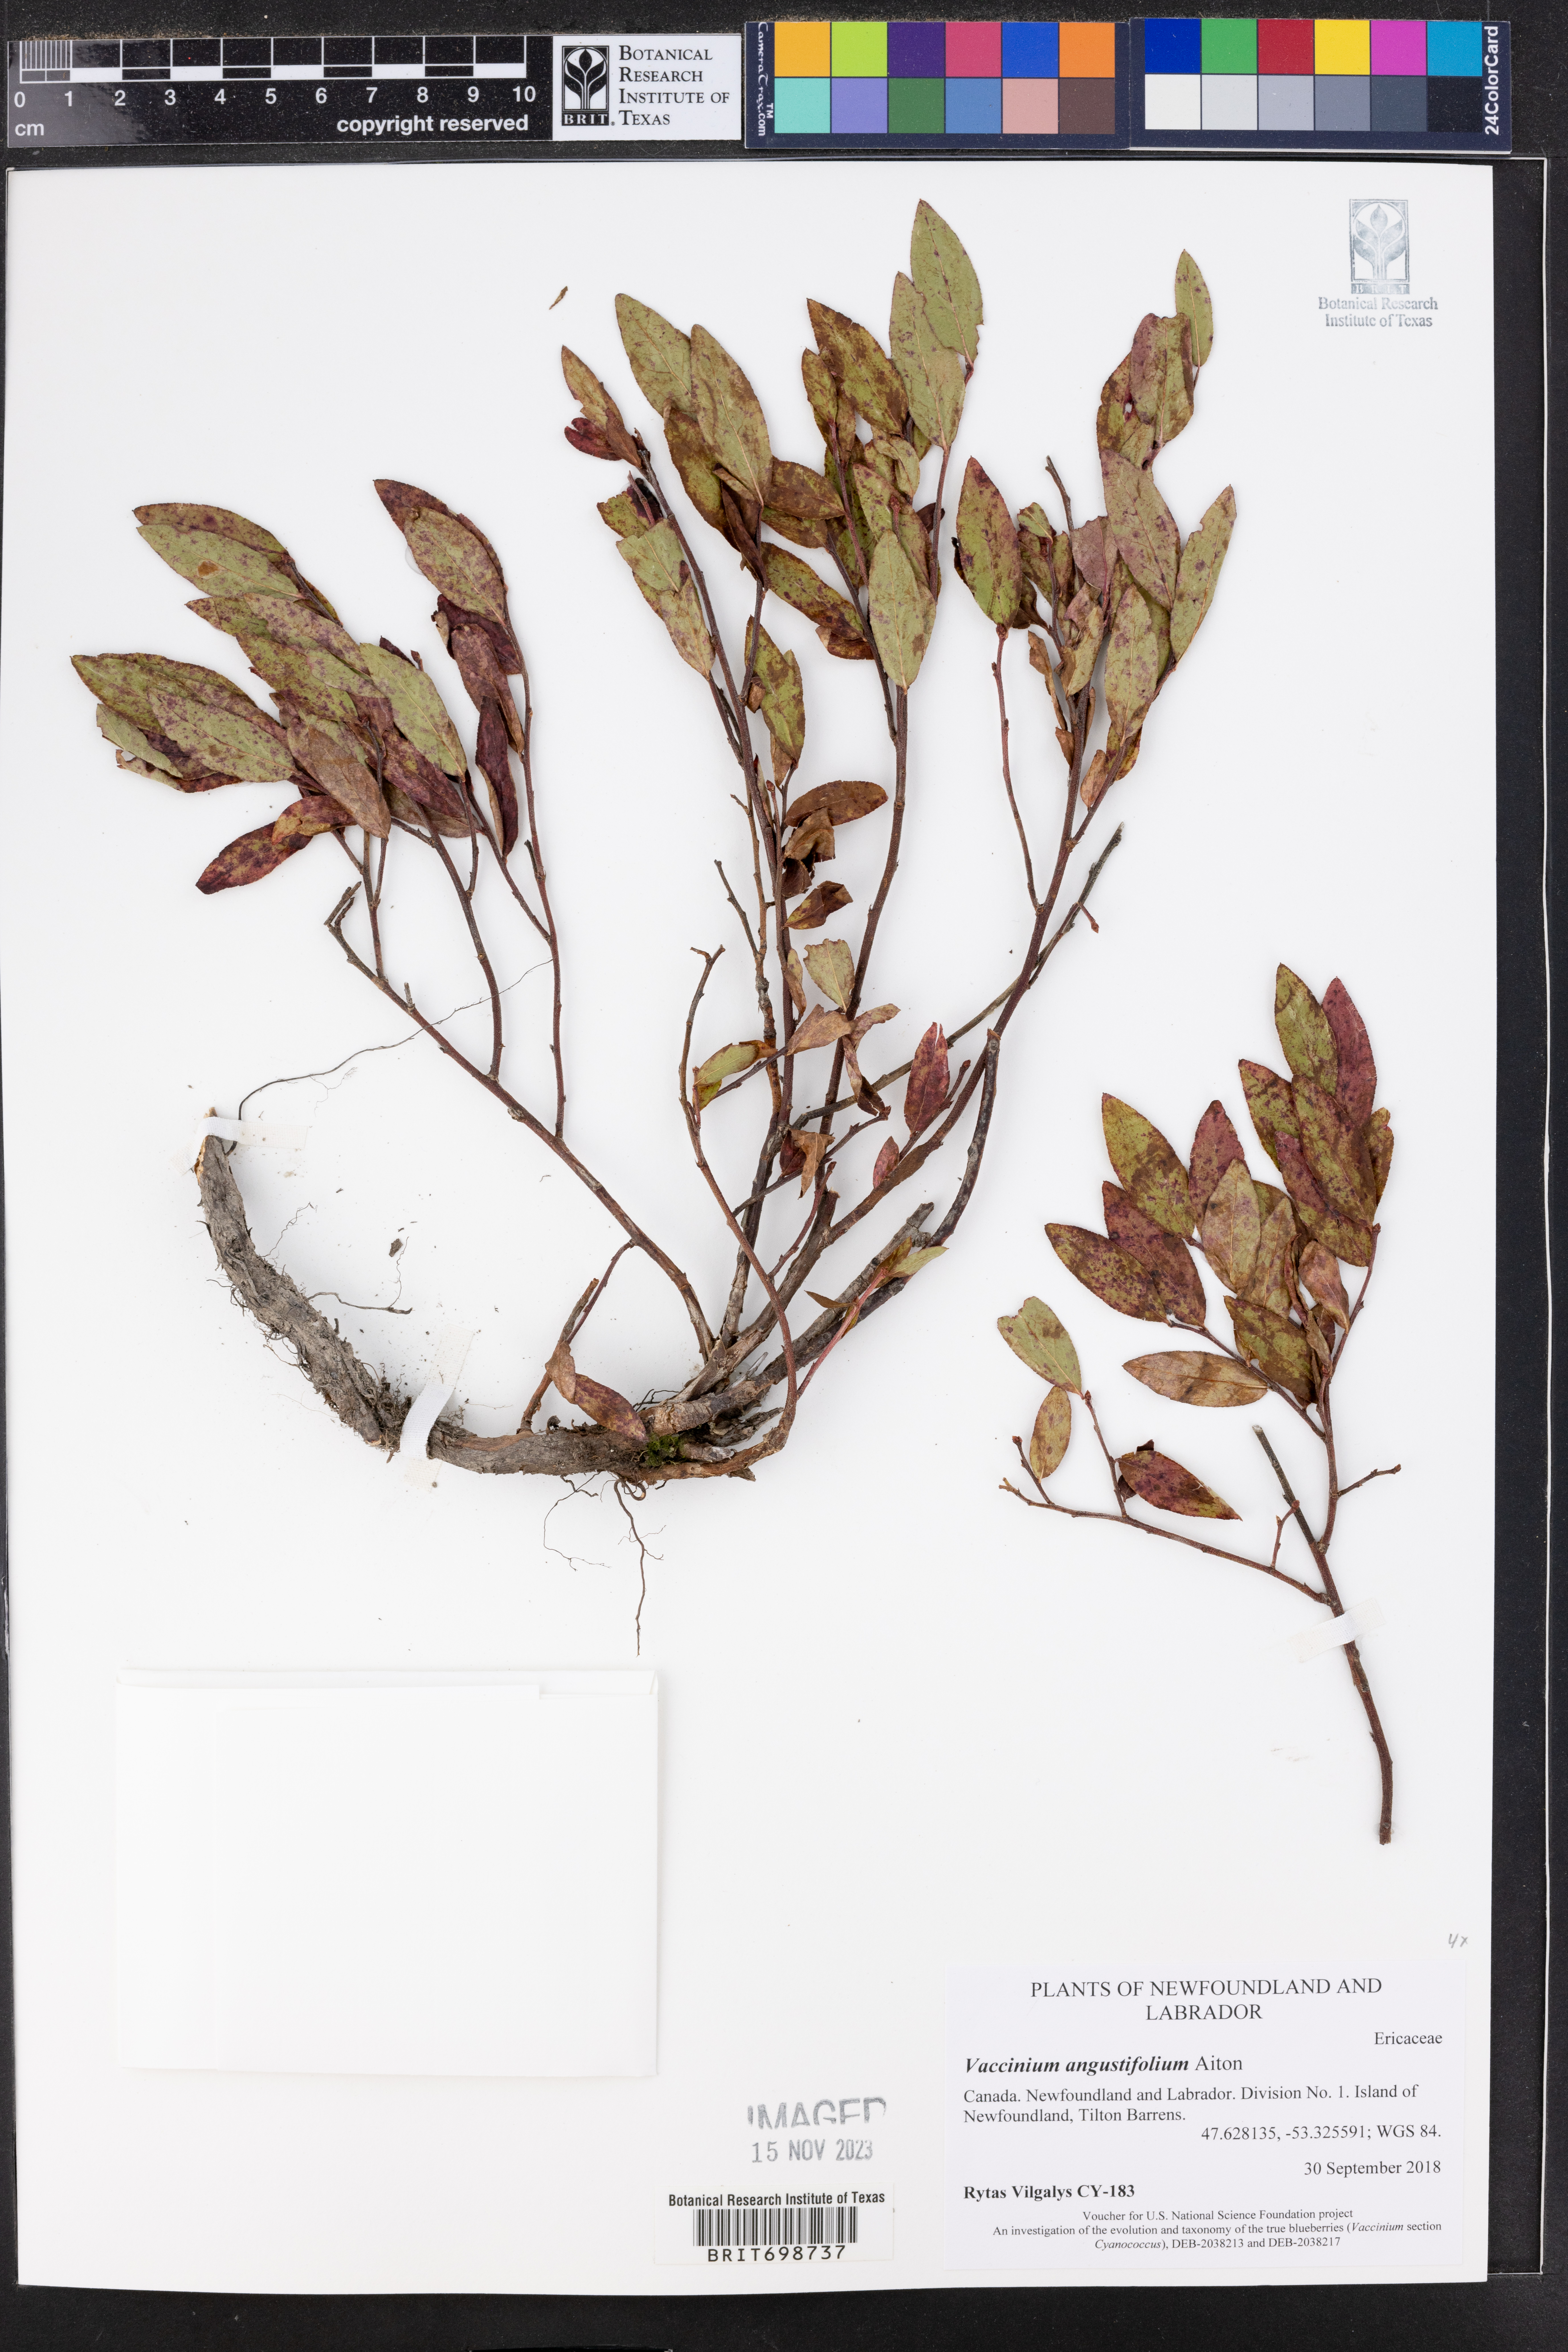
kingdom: Plantae
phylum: Tracheophyta
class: Magnoliopsida
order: Ericales
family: Ericaceae
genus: Vaccinium
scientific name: Vaccinium angustifolium
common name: Early lowbush blueberry
